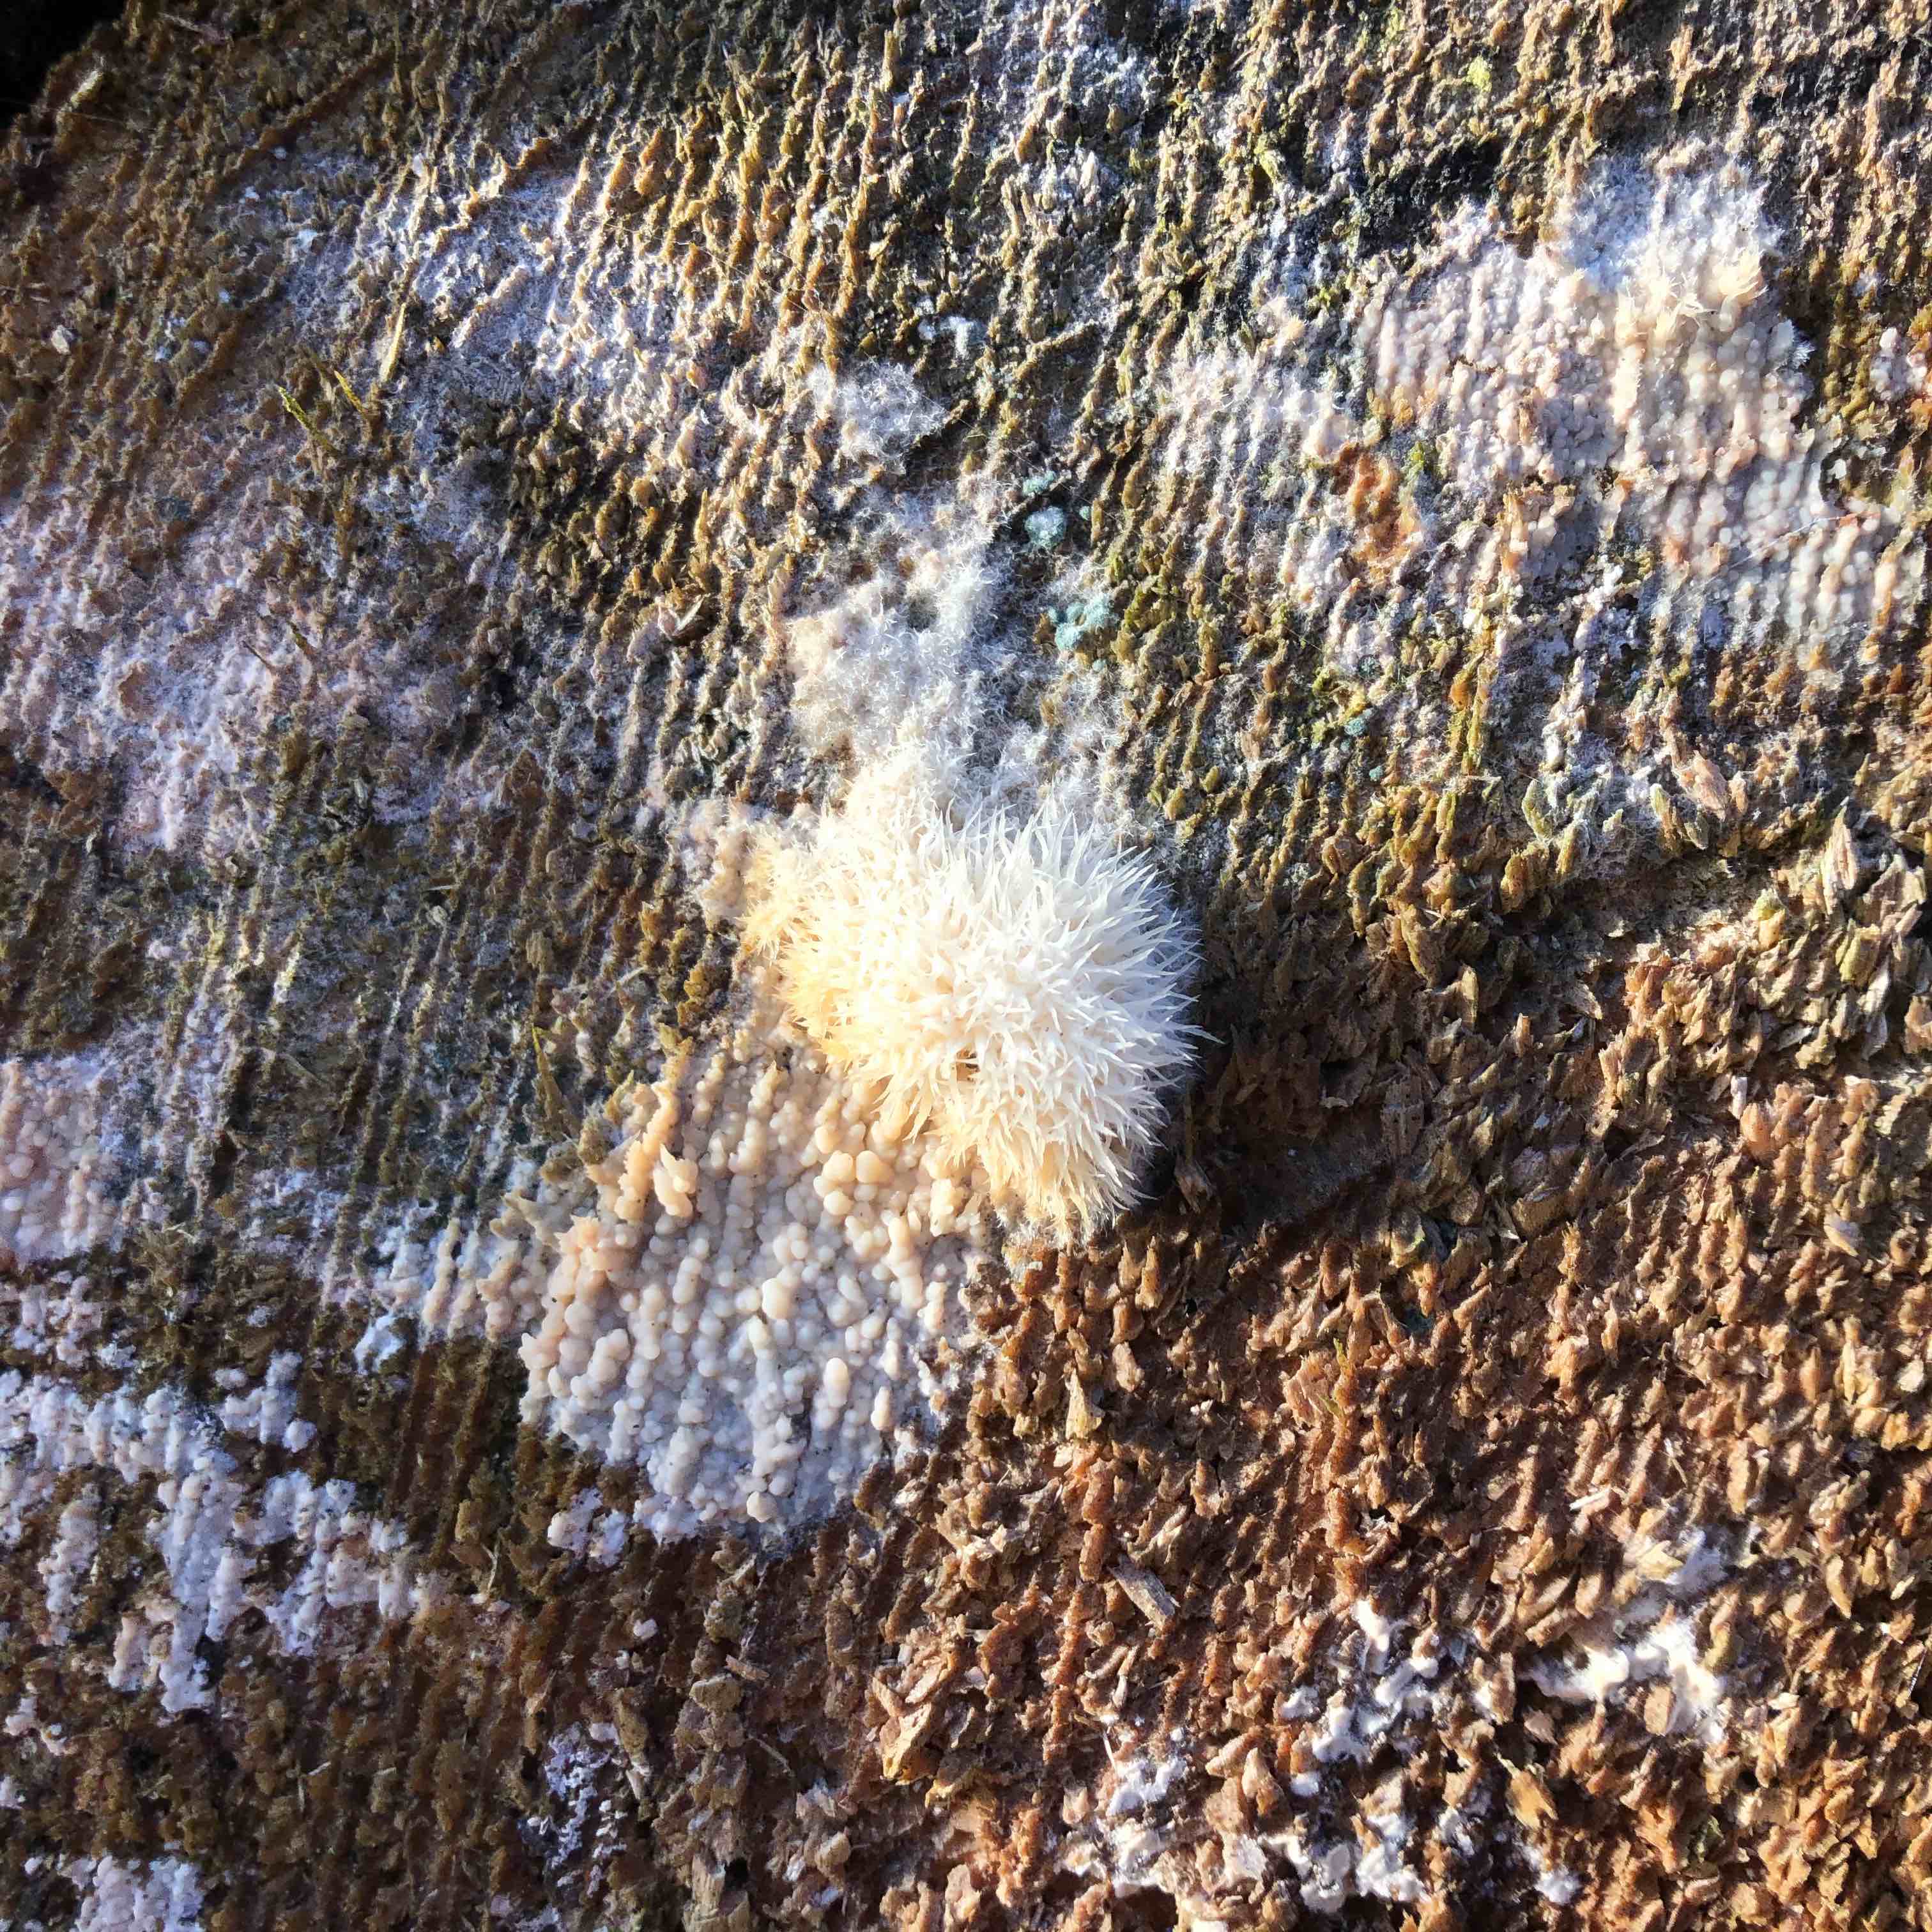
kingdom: Fungi
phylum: Basidiomycota
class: Agaricomycetes
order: Polyporales
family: Dacryobolaceae
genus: Postia
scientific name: Postia ptychogaster
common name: støvende kødporesvamp
